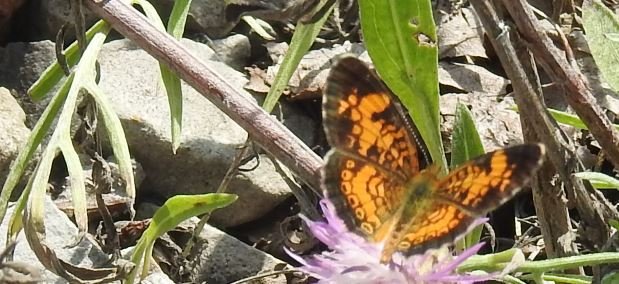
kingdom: Animalia
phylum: Arthropoda
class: Insecta
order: Lepidoptera
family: Nymphalidae
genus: Phyciodes
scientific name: Phyciodes tharos
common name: Pearl Crescent
